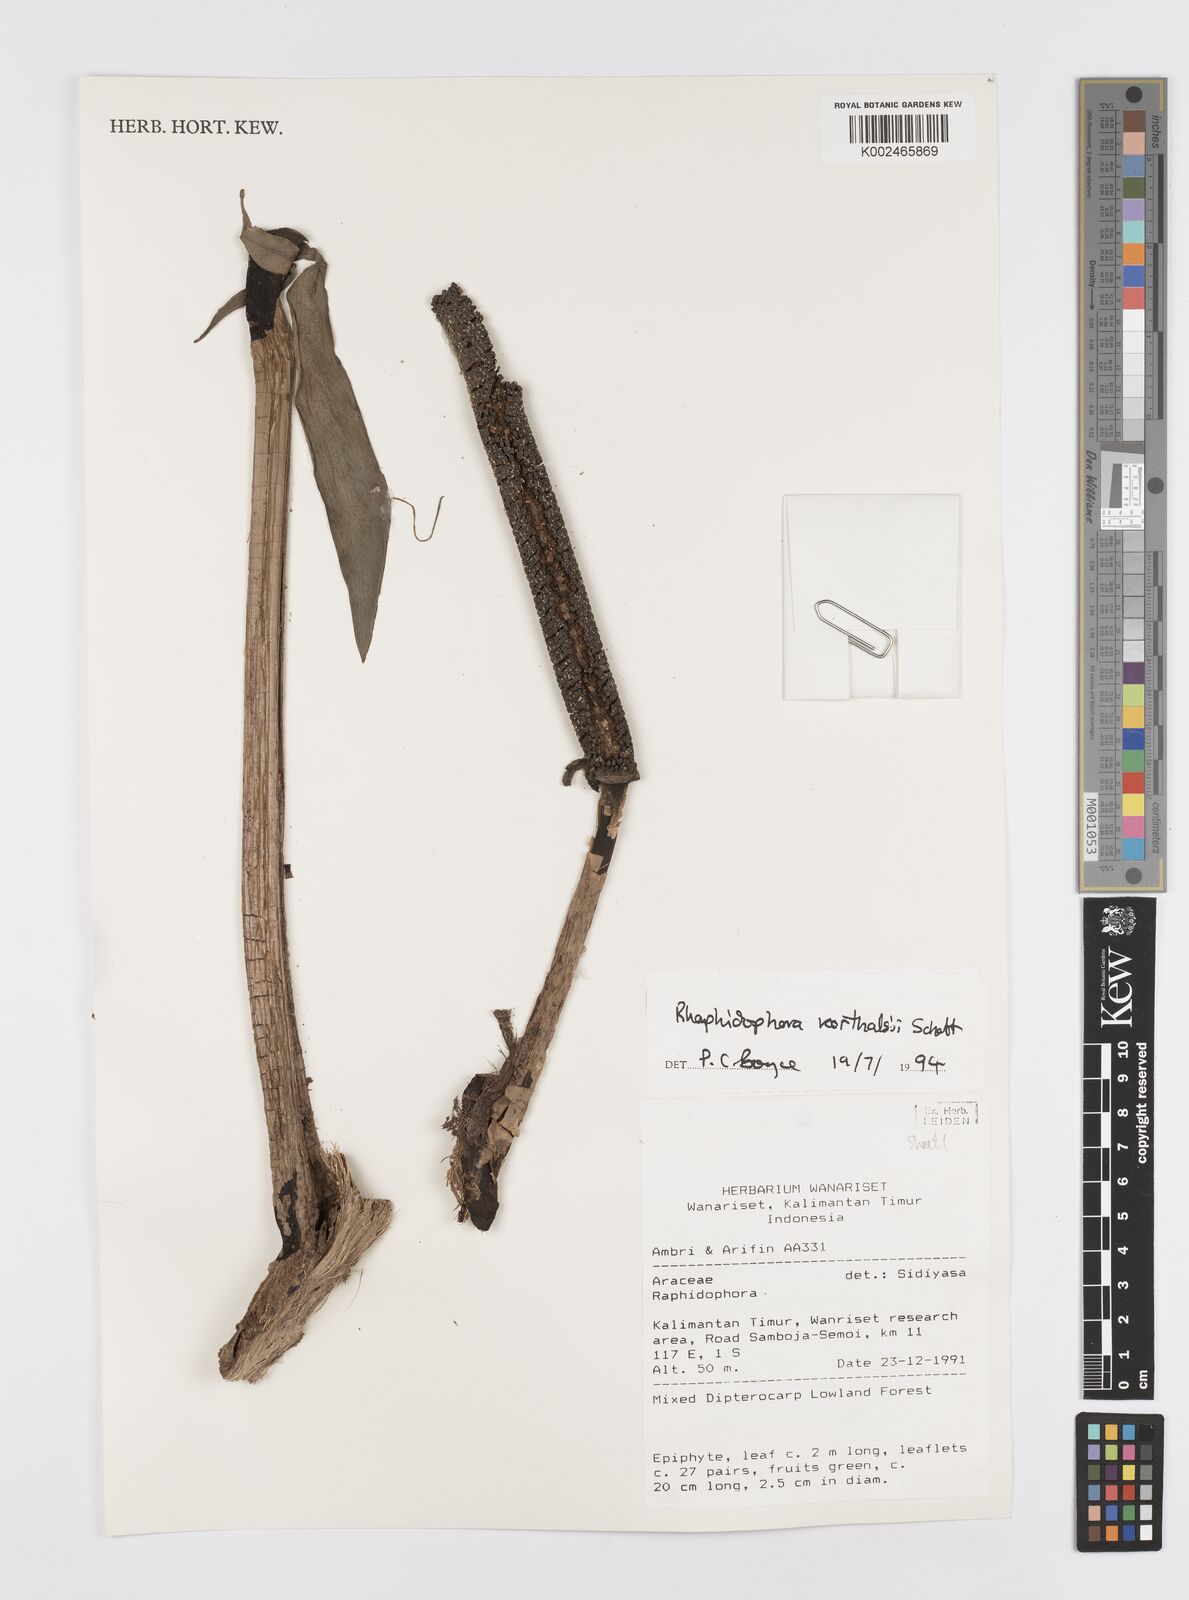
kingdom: Plantae
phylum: Tracheophyta
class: Liliopsida
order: Alismatales
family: Araceae
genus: Rhaphidophora
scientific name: Rhaphidophora korthalsii
